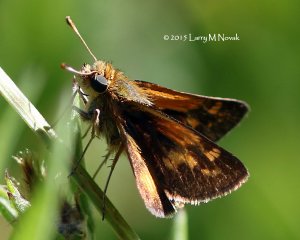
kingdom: Animalia
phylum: Arthropoda
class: Insecta
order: Lepidoptera
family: Hesperiidae
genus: Polites
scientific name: Polites coras
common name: Peck's Skipper
